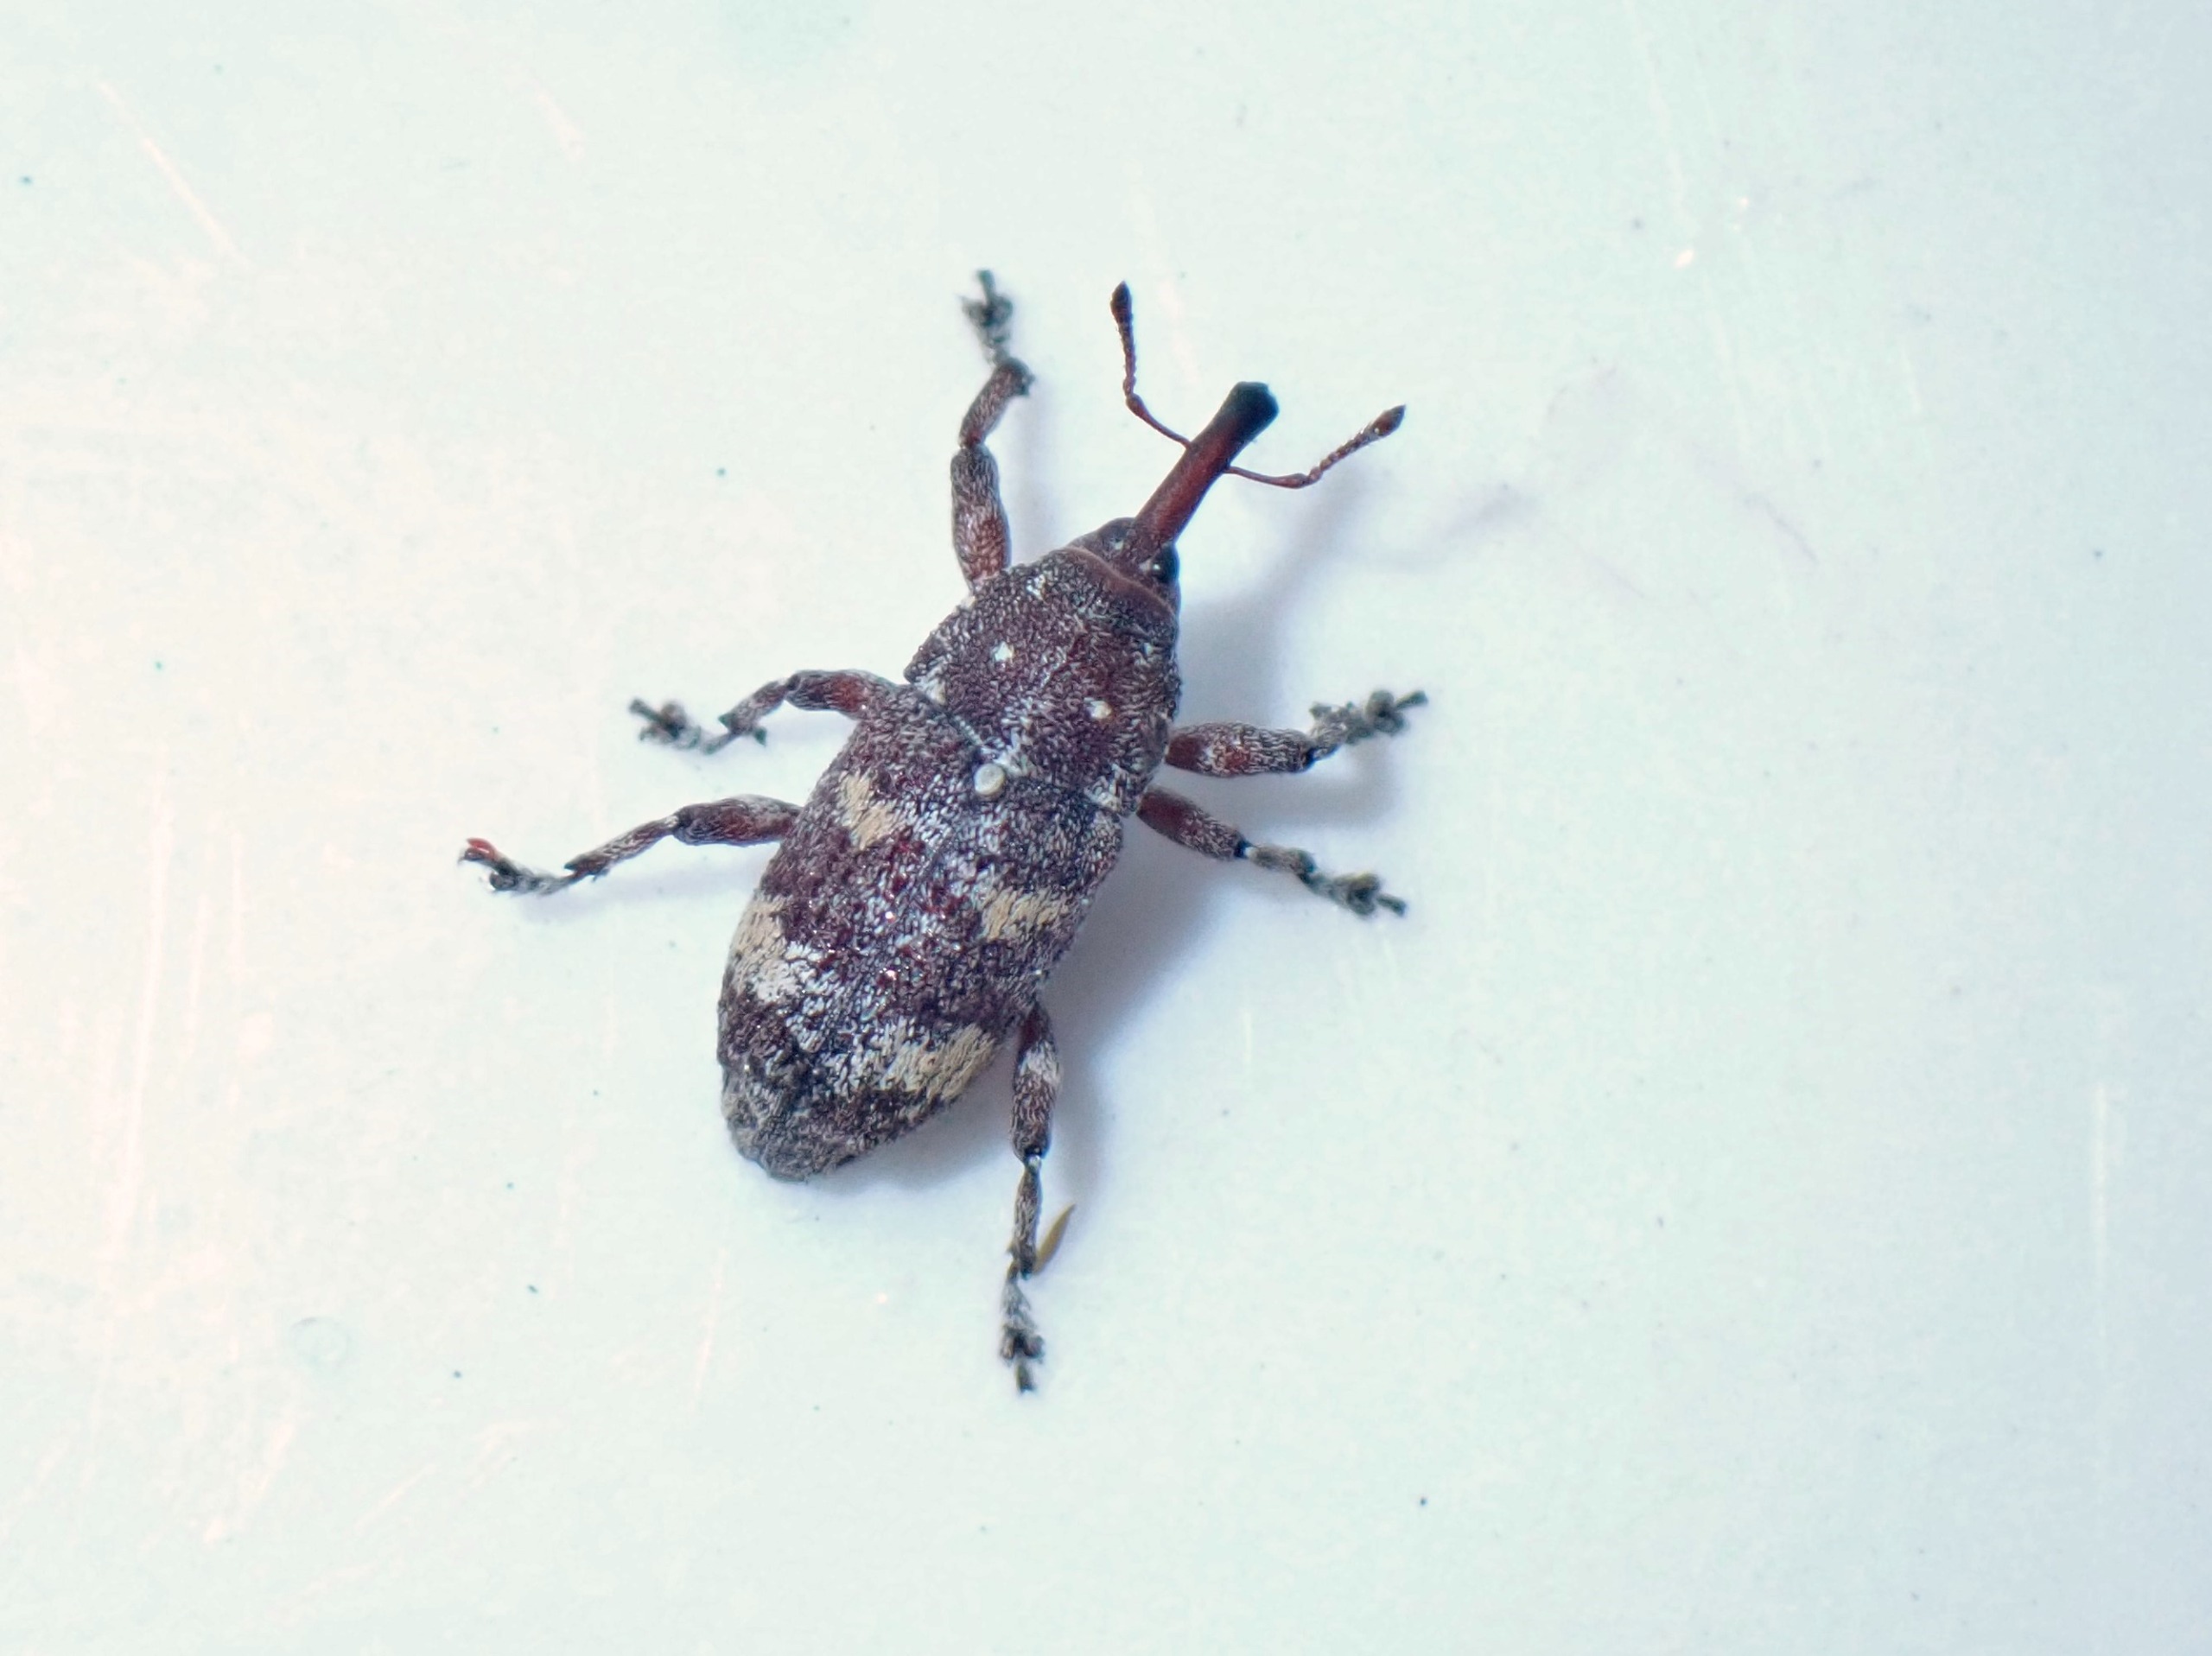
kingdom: Animalia
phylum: Arthropoda
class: Insecta
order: Coleoptera
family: Curculionidae
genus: Pissodes
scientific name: Pissodes validirostris
